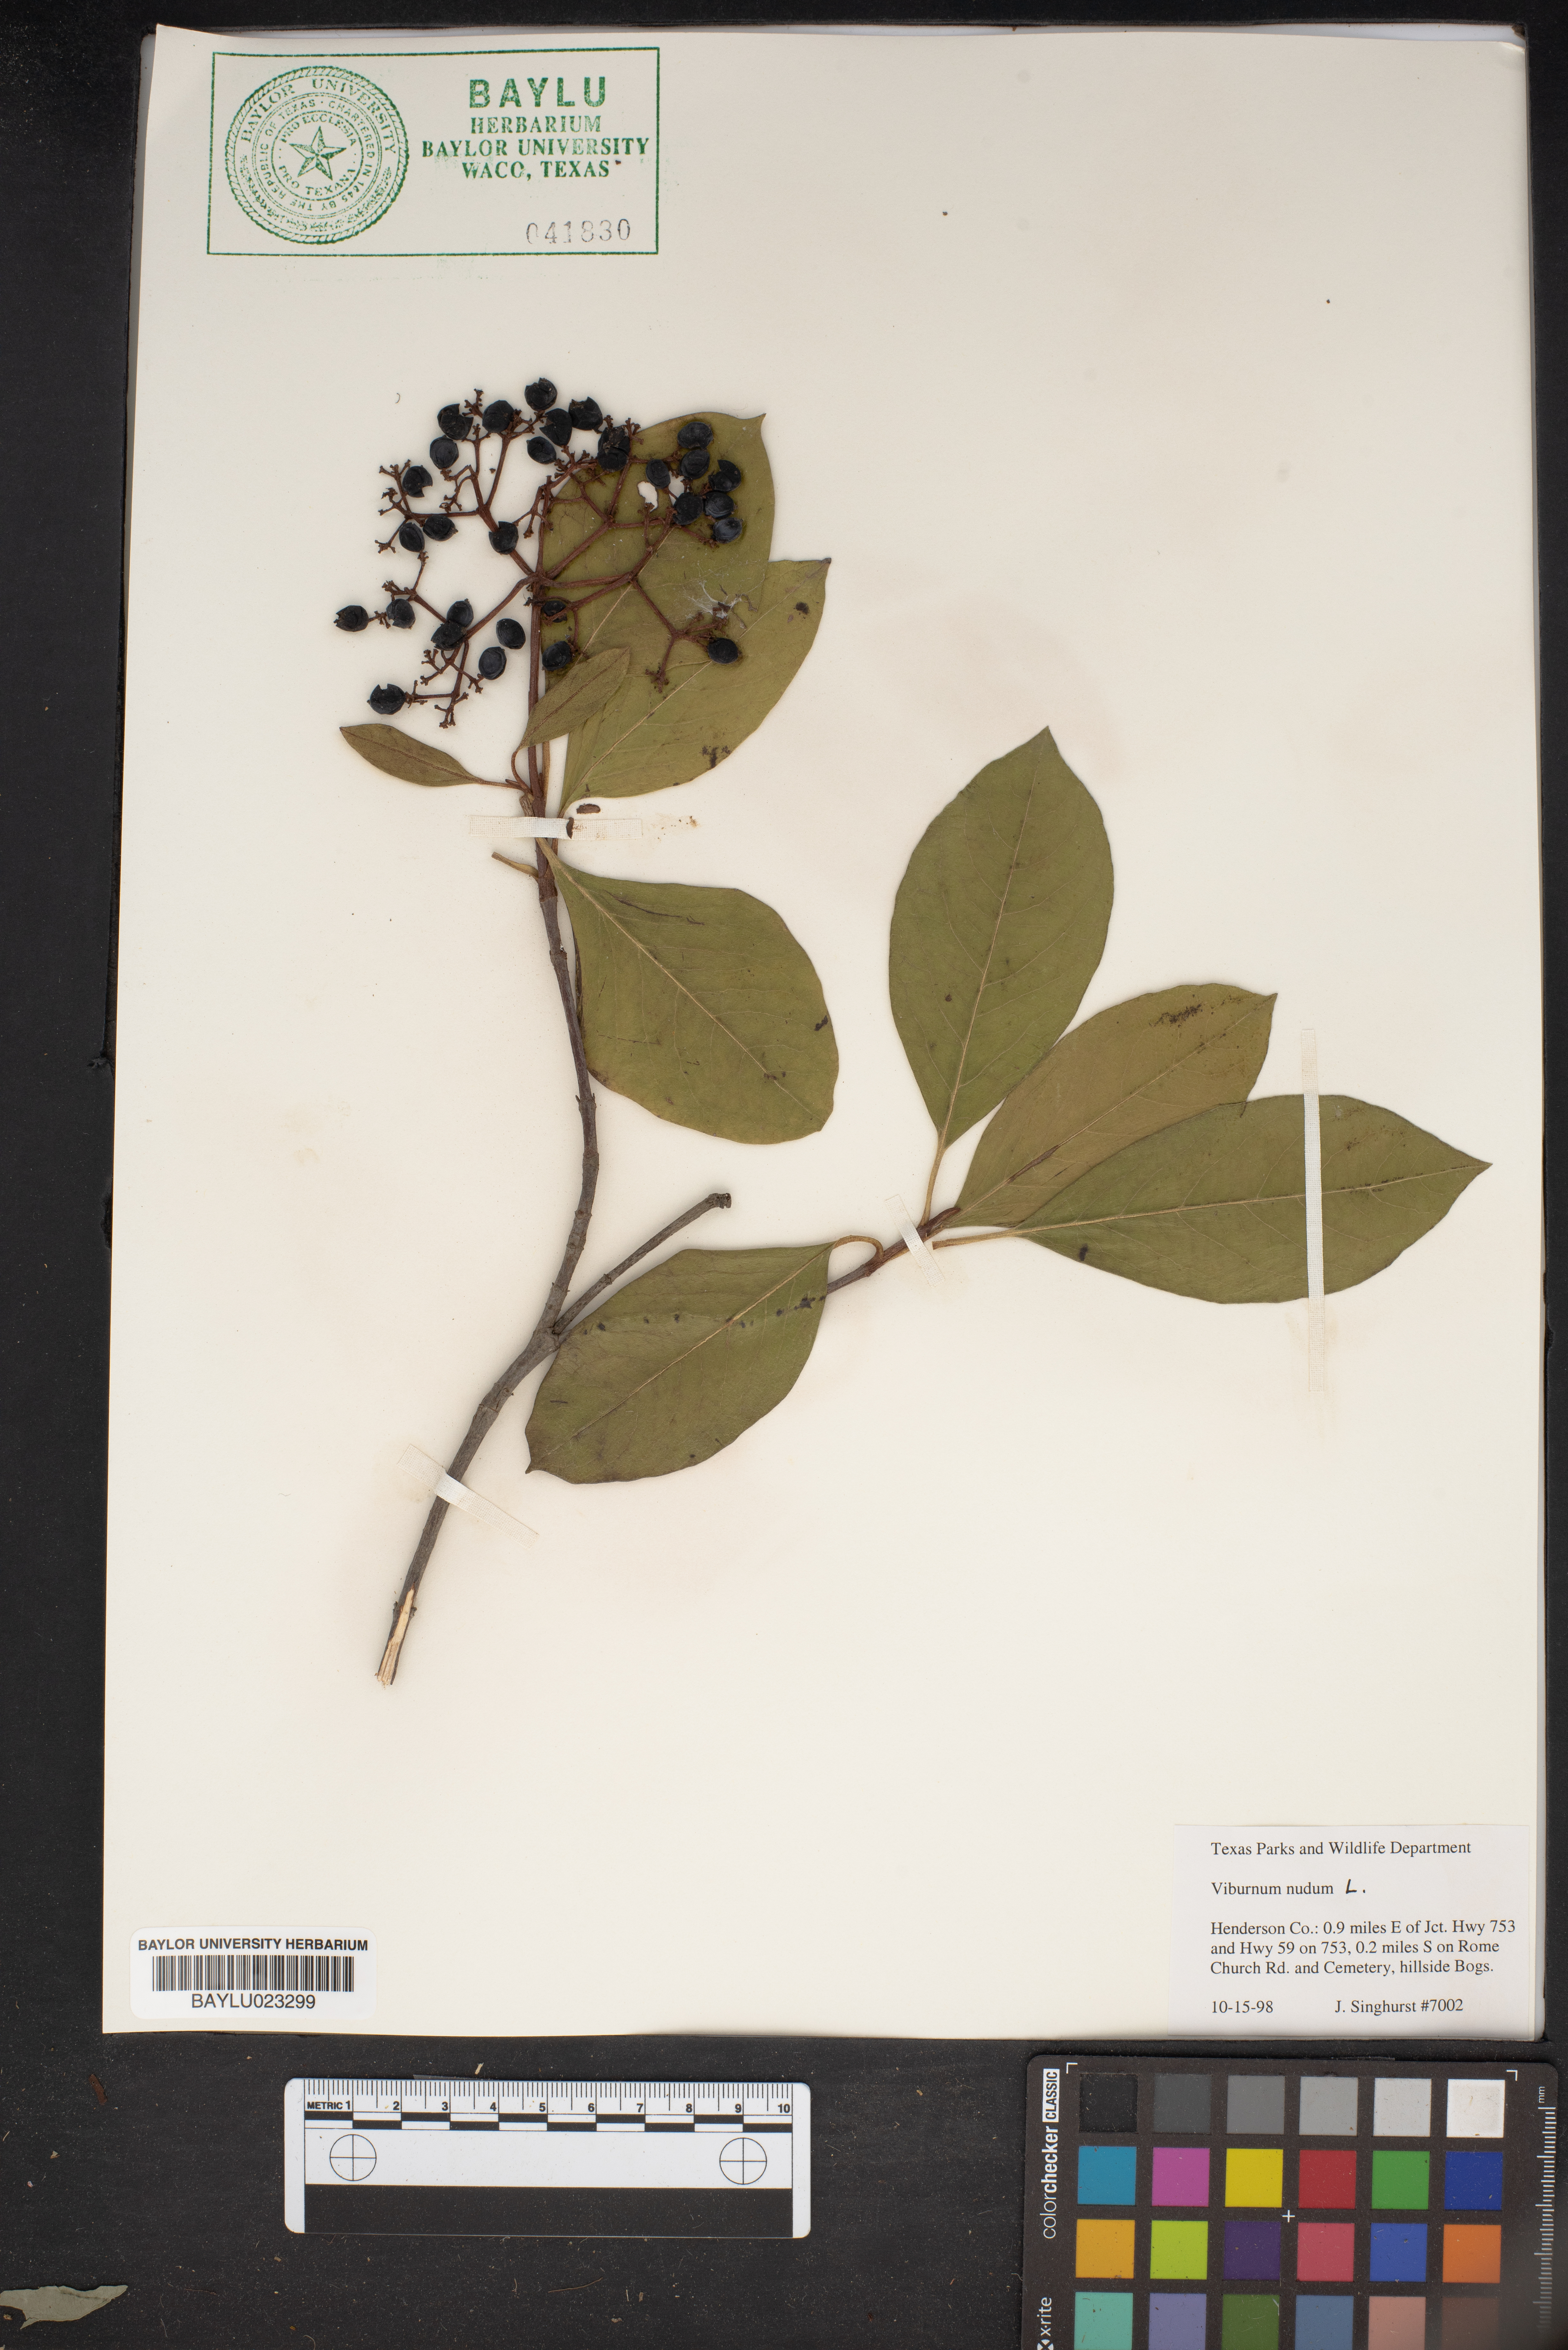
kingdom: Plantae
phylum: Tracheophyta
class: Magnoliopsida
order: Dipsacales
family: Viburnaceae
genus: Viburnum
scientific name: Viburnum nudum
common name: Possum haw
